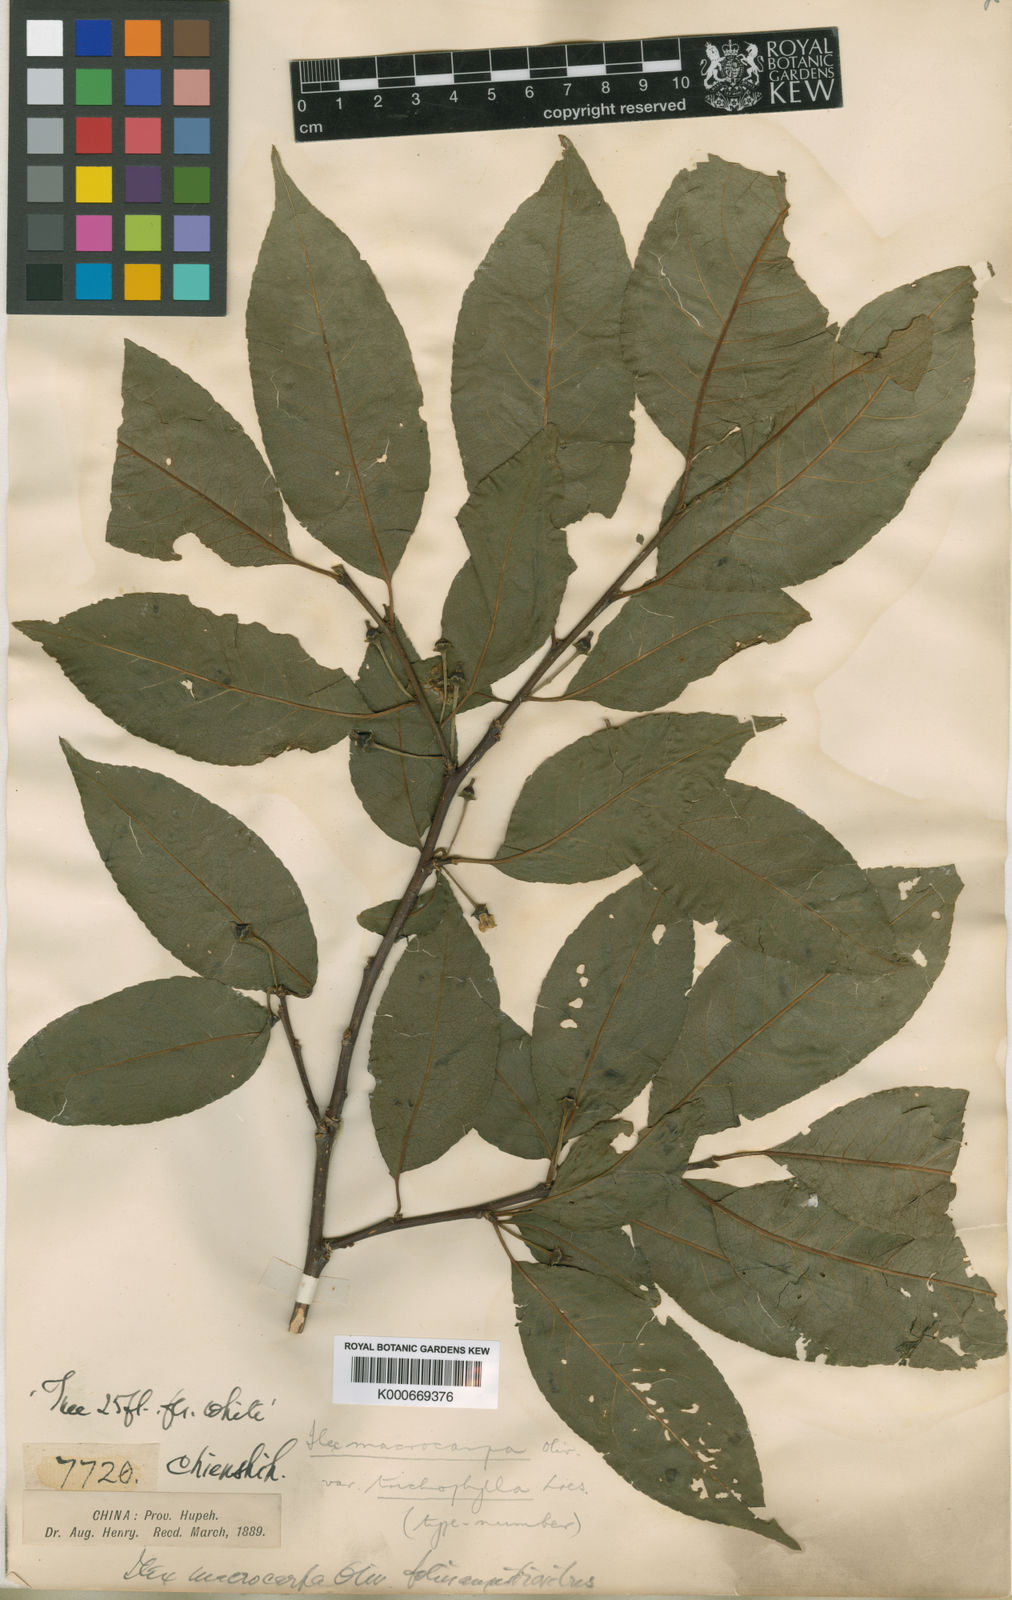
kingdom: Plantae
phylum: Tracheophyta
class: Magnoliopsida
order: Aquifoliales
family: Aquifoliaceae
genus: Ilex
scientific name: Ilex macrocarpa
